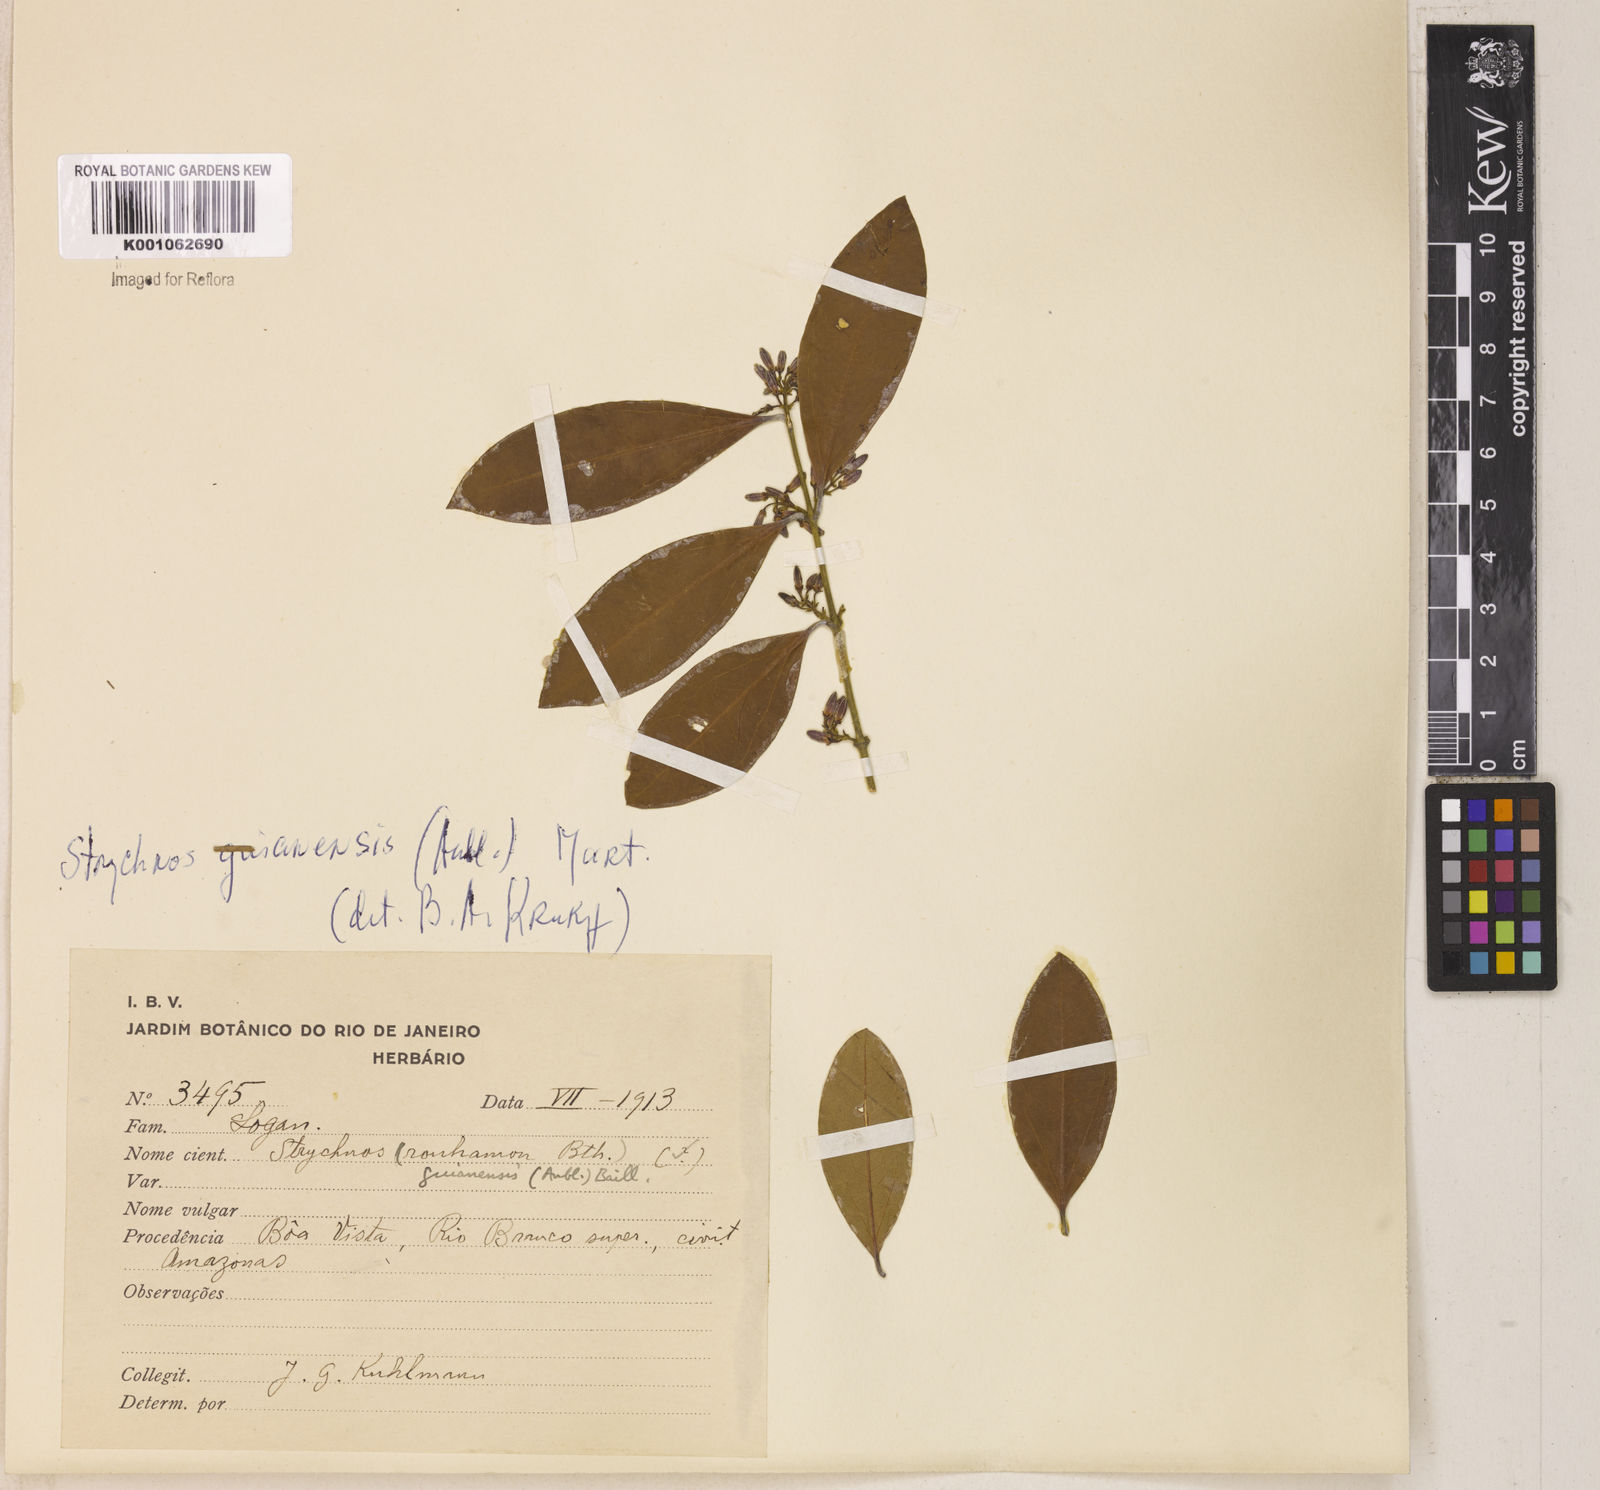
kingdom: Plantae
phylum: Tracheophyta
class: Magnoliopsida
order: Gentianales
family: Loganiaceae
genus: Strychnos
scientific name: Strychnos guianensis
